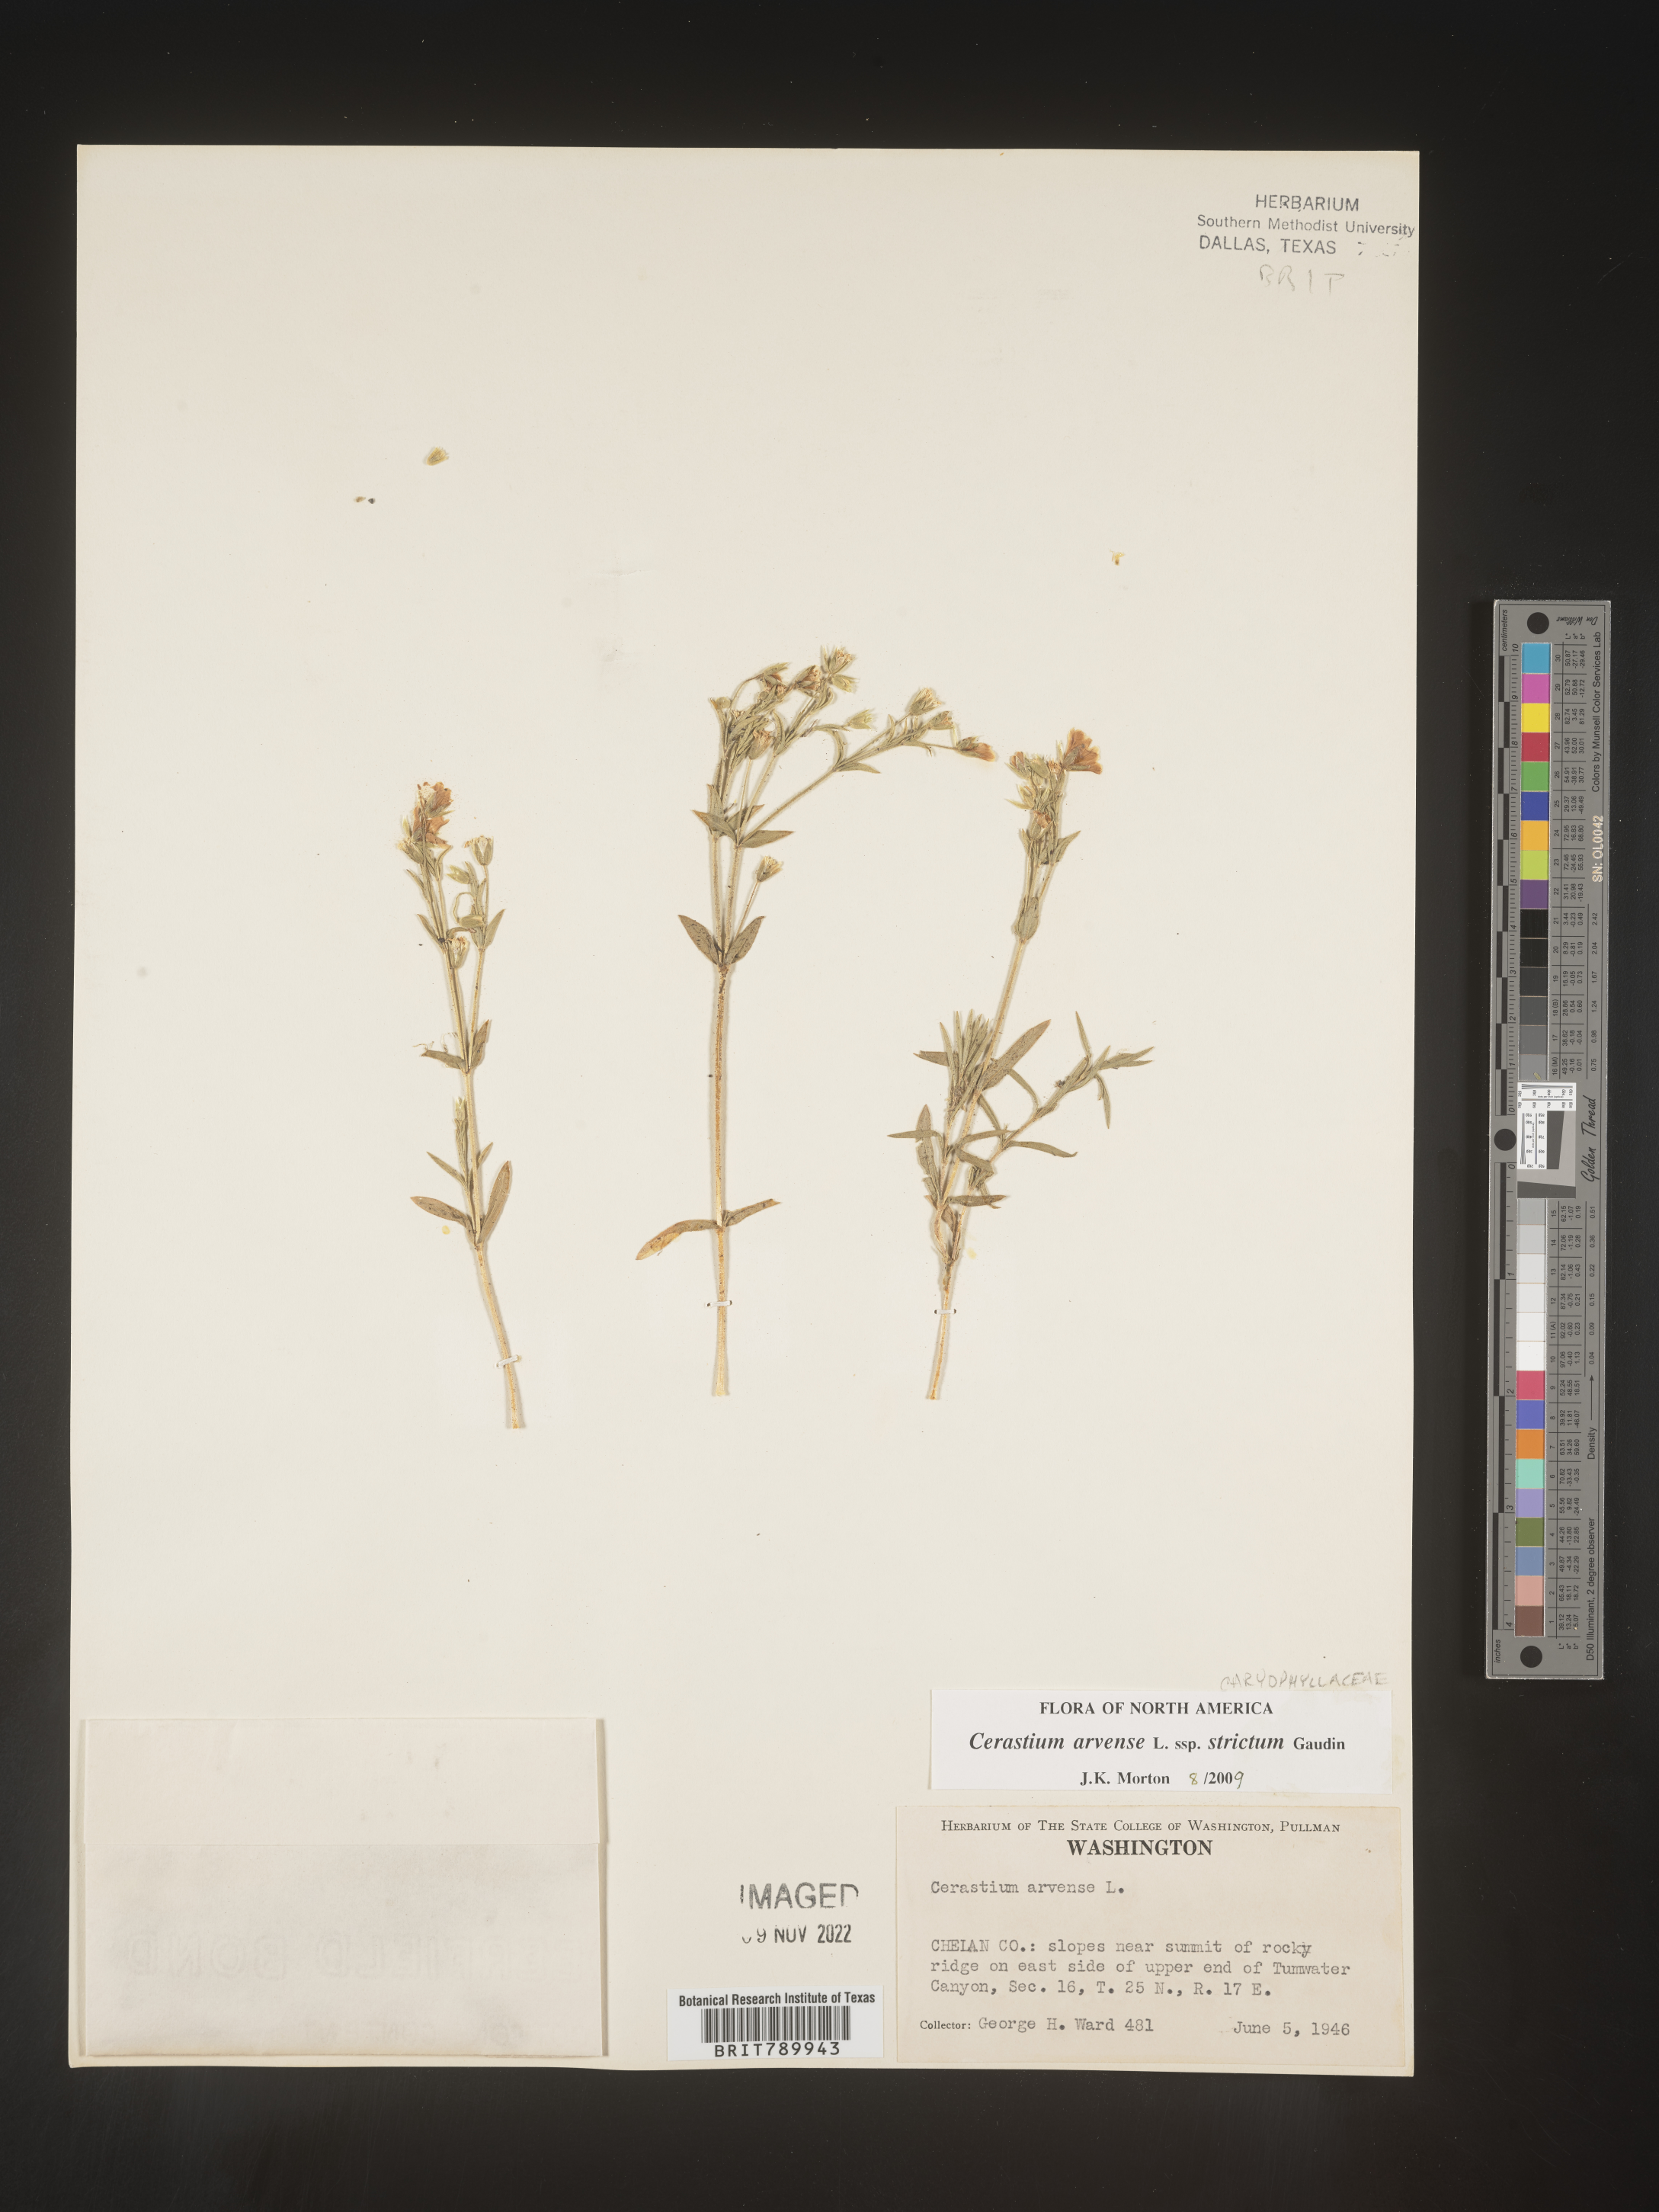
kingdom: Plantae
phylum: Tracheophyta
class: Magnoliopsida
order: Caryophyllales
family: Caryophyllaceae
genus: Cerastium
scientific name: Cerastium arvense
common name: Field mouse-ear
